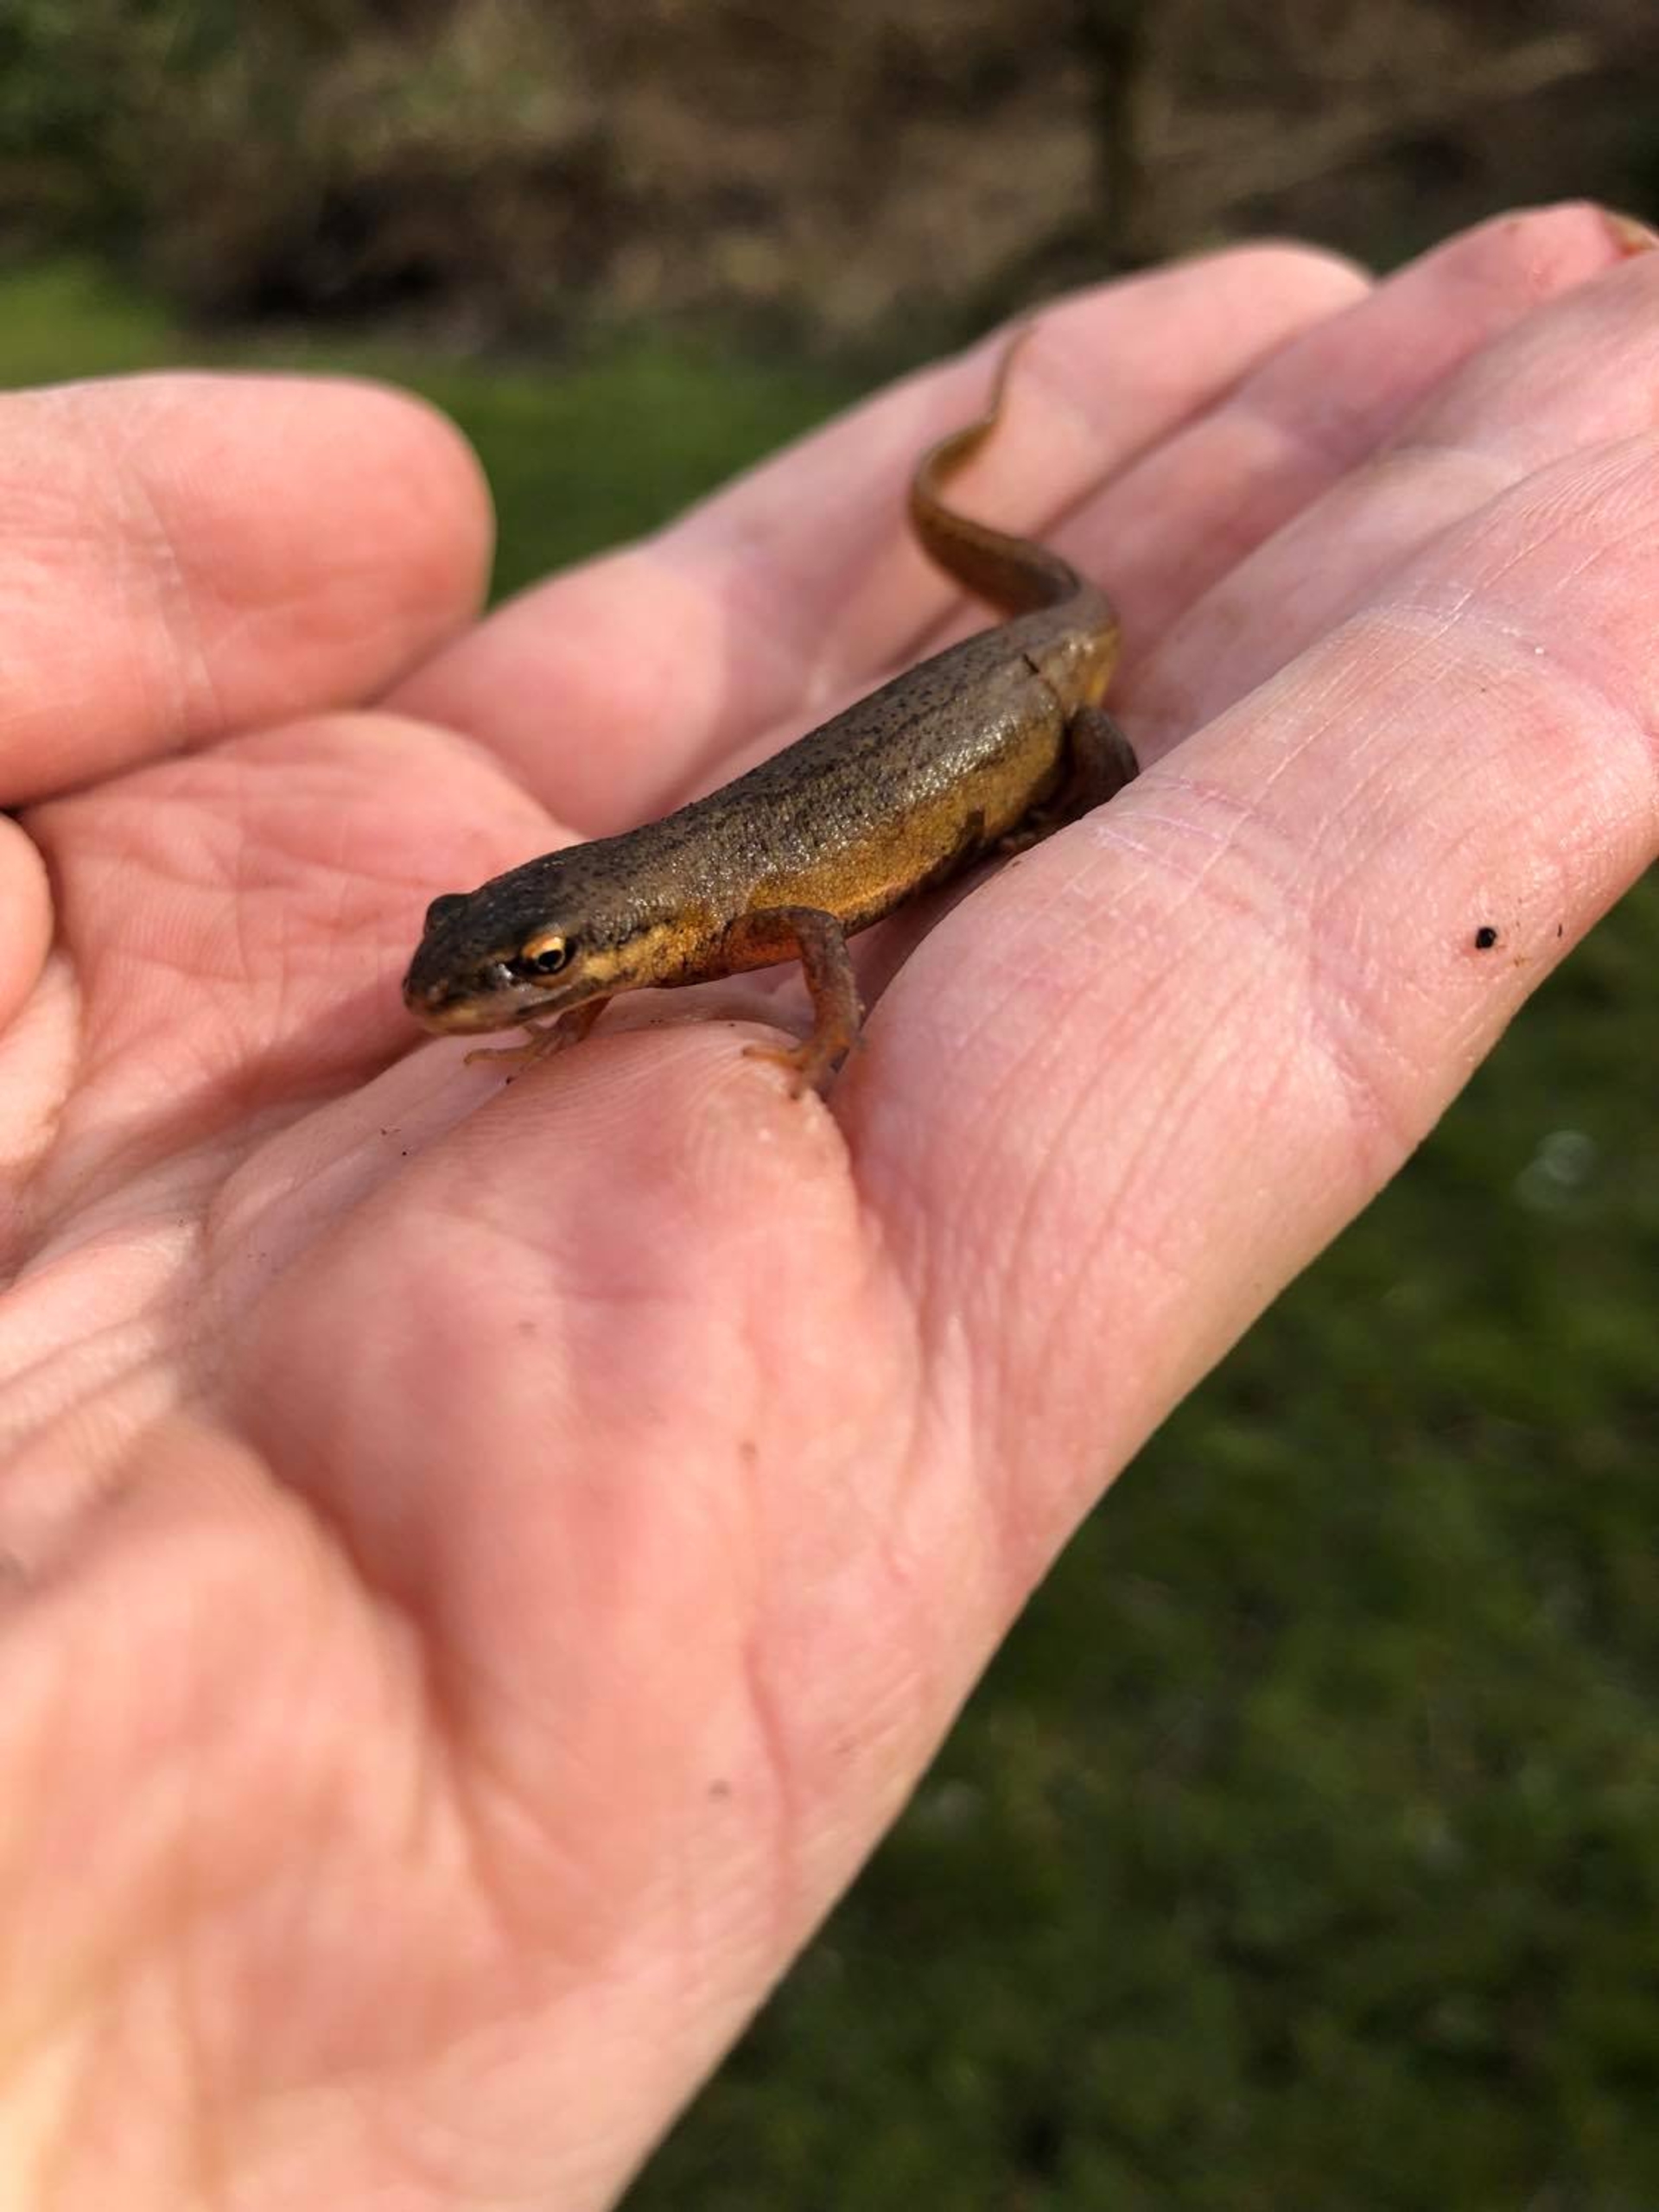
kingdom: Animalia
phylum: Chordata
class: Amphibia
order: Caudata
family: Salamandridae
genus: Lissotriton
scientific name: Lissotriton vulgaris
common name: Lille vandsalamander
